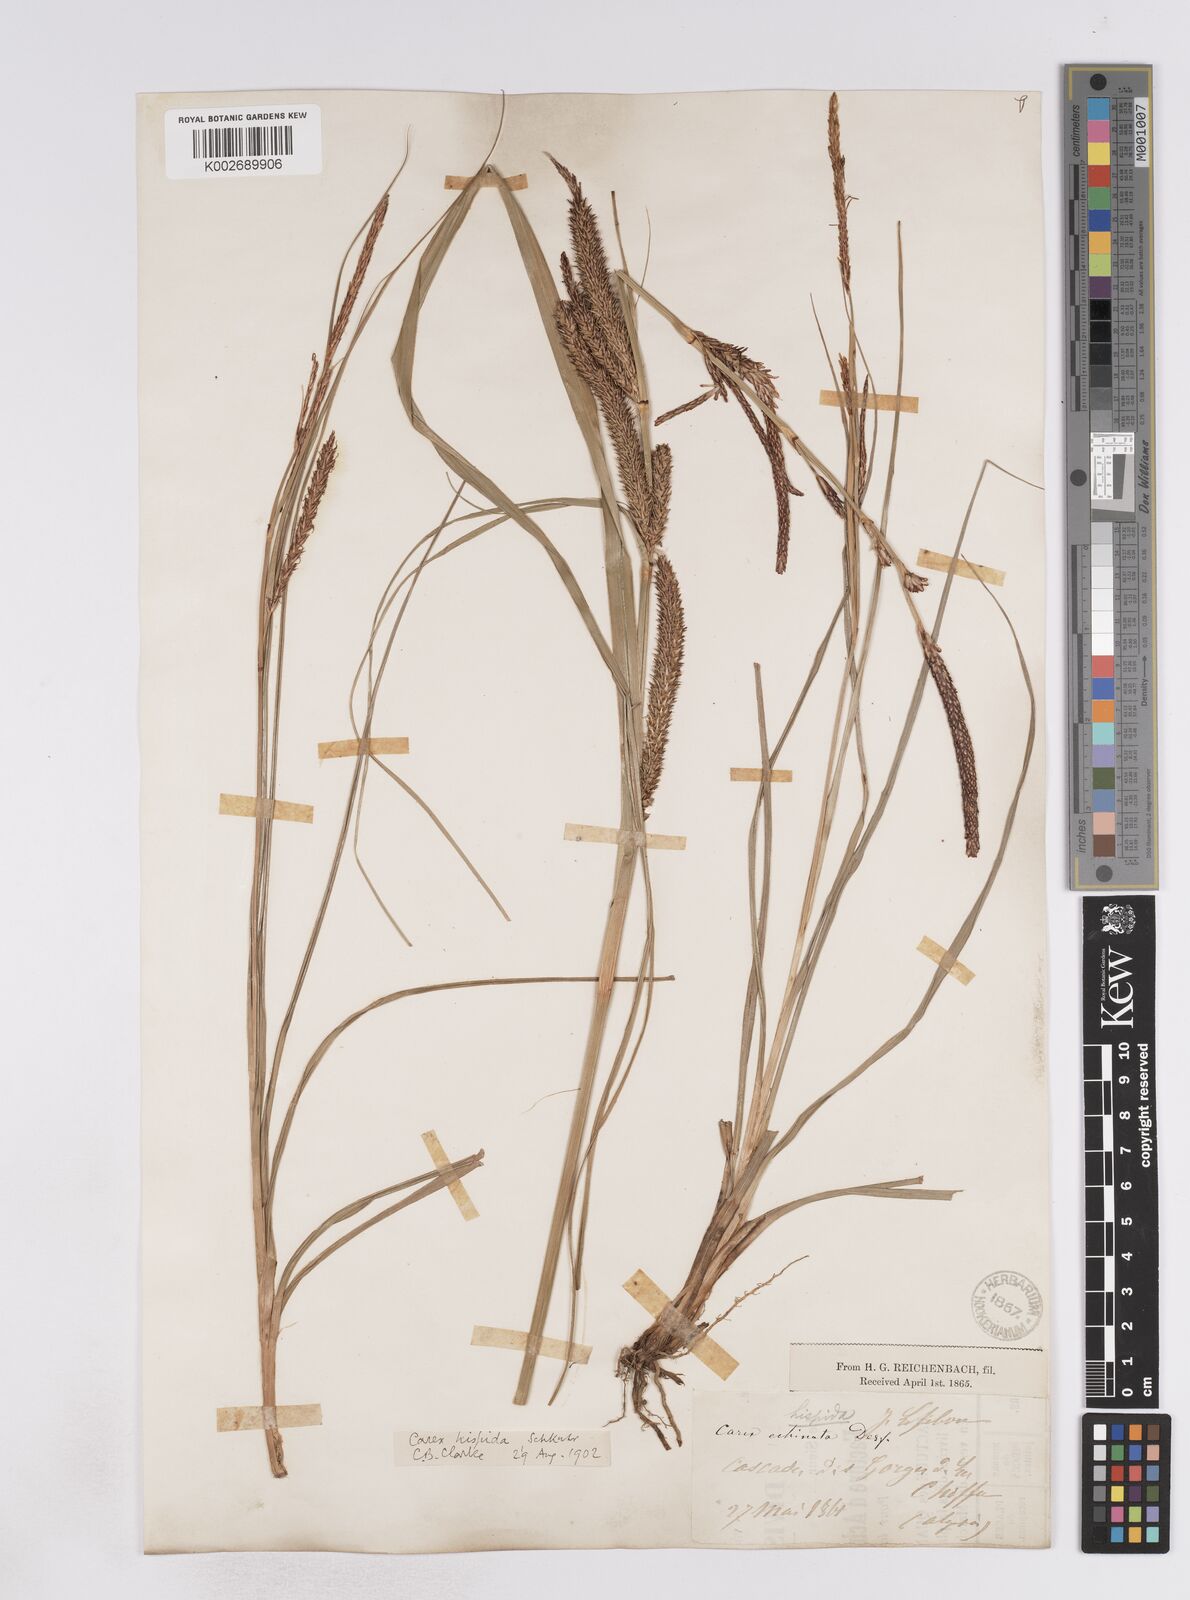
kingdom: Plantae
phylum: Tracheophyta
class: Liliopsida
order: Poales
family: Cyperaceae
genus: Carex
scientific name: Carex hispida
